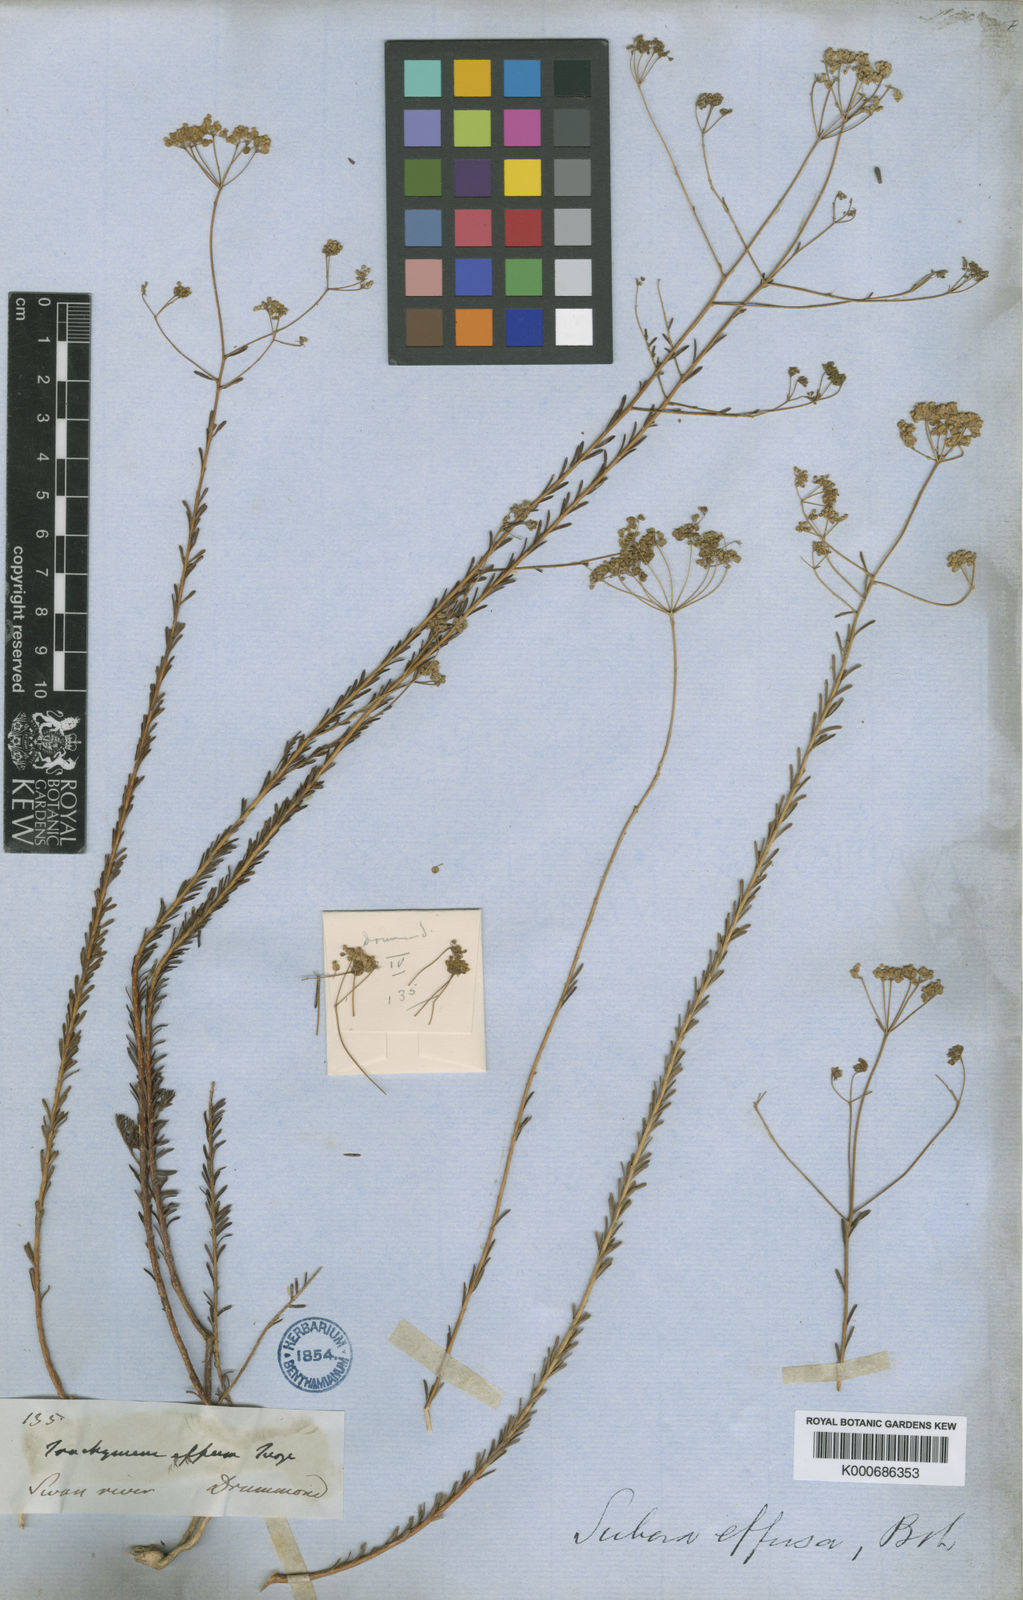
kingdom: Plantae
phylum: Tracheophyta
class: Magnoliopsida
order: Apiales
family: Apiaceae
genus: Platysace
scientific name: Platysace effusa
